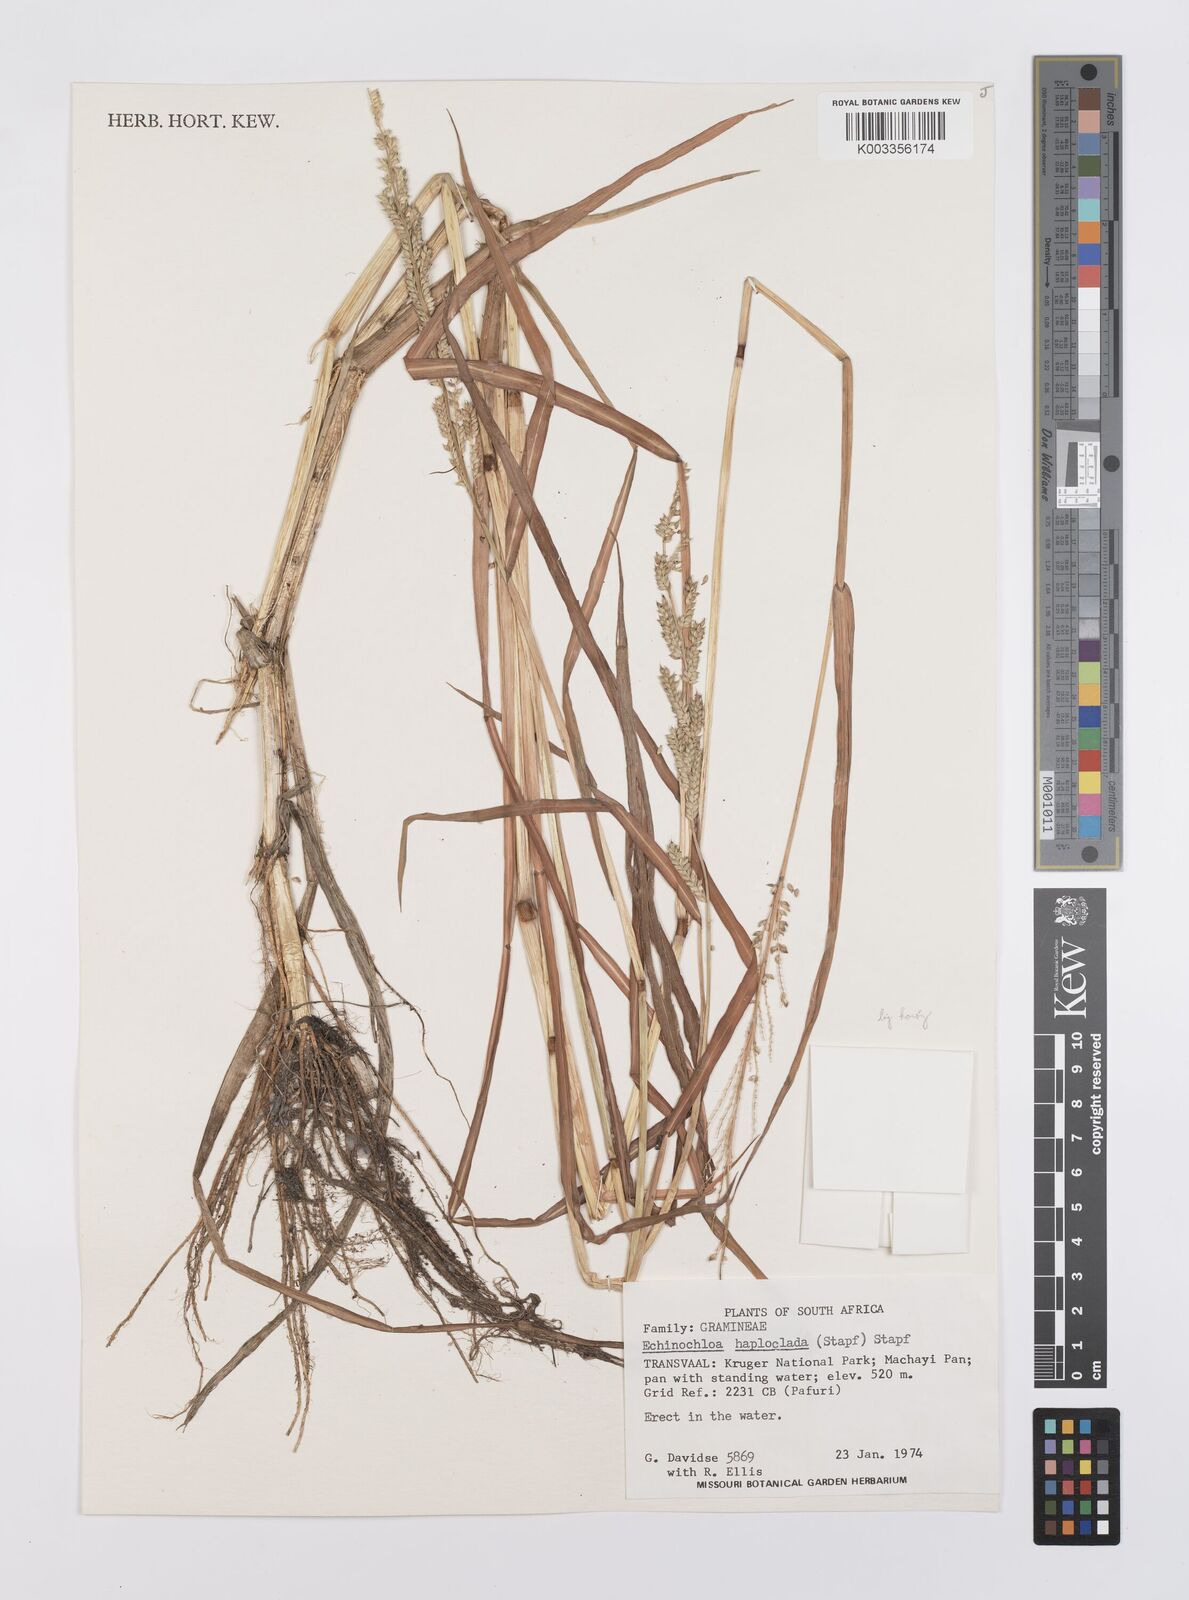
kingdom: Plantae
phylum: Tracheophyta
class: Liliopsida
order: Poales
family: Poaceae
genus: Echinochloa
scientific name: Echinochloa ugandensis
